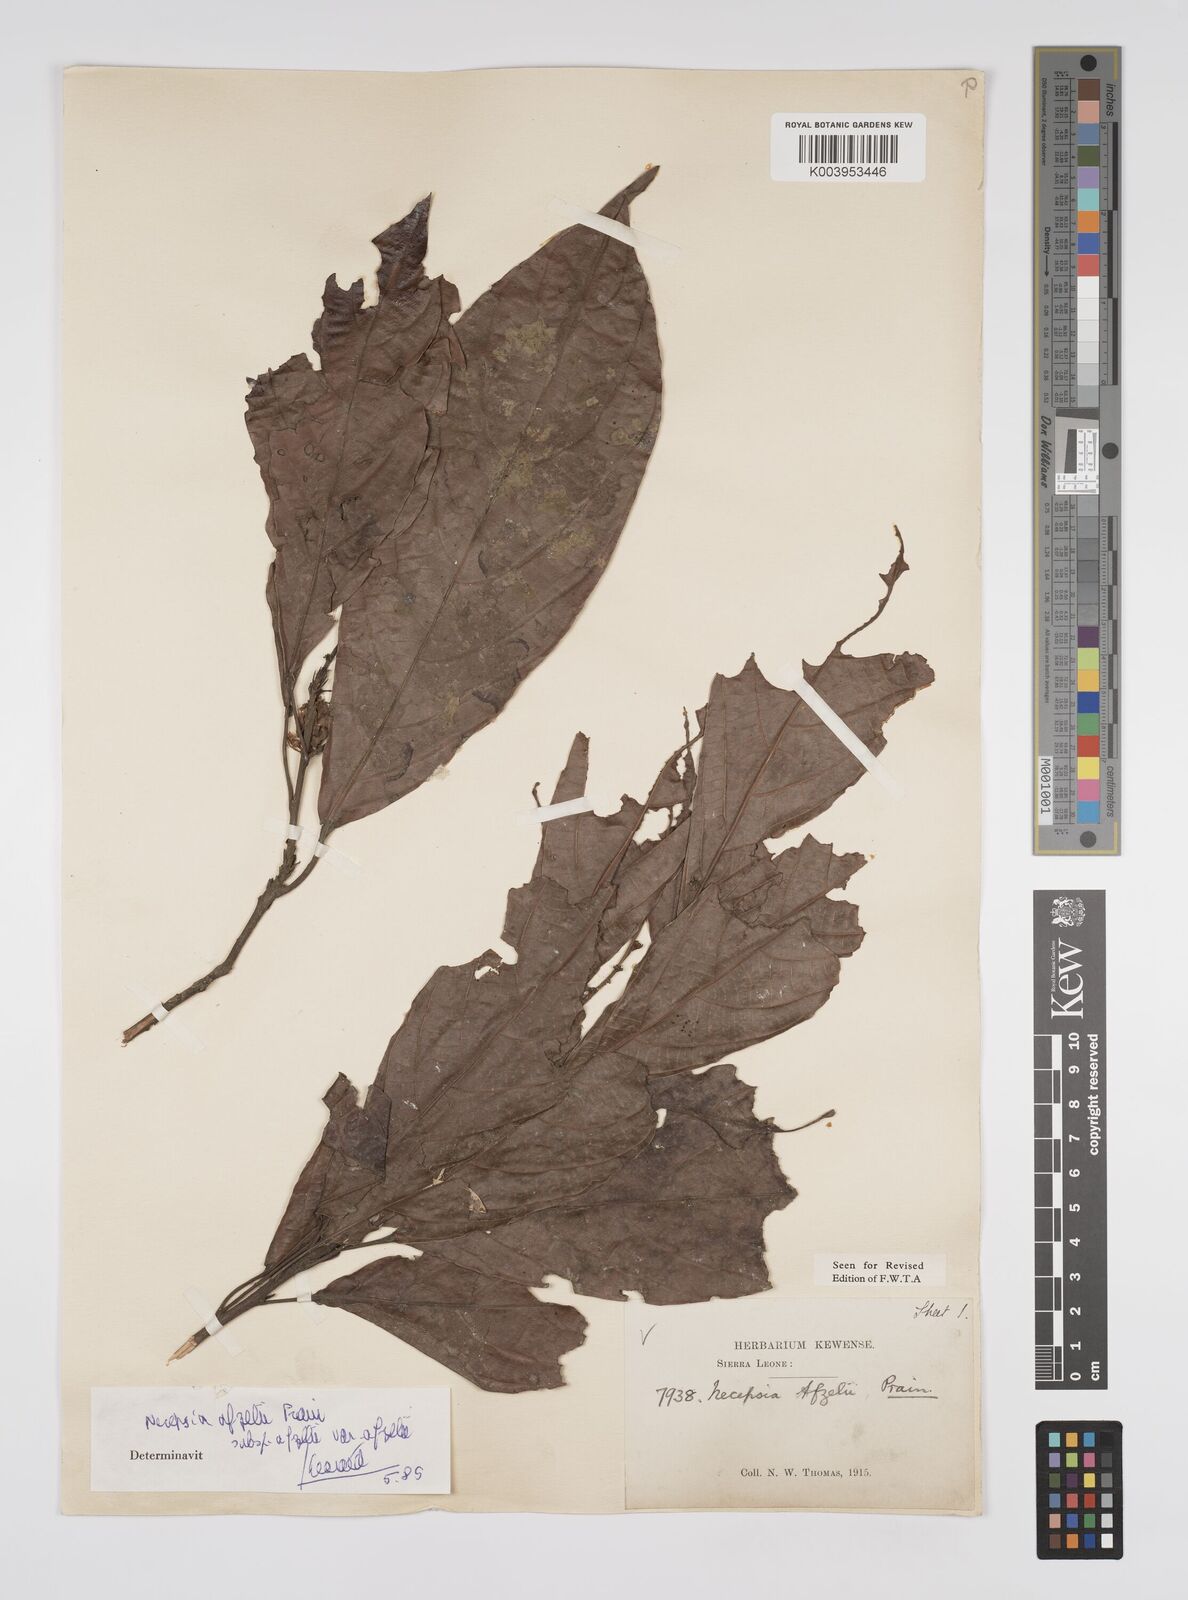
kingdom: Plantae
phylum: Tracheophyta
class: Magnoliopsida
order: Malpighiales
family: Euphorbiaceae
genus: Necepsia
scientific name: Necepsia afzelii
